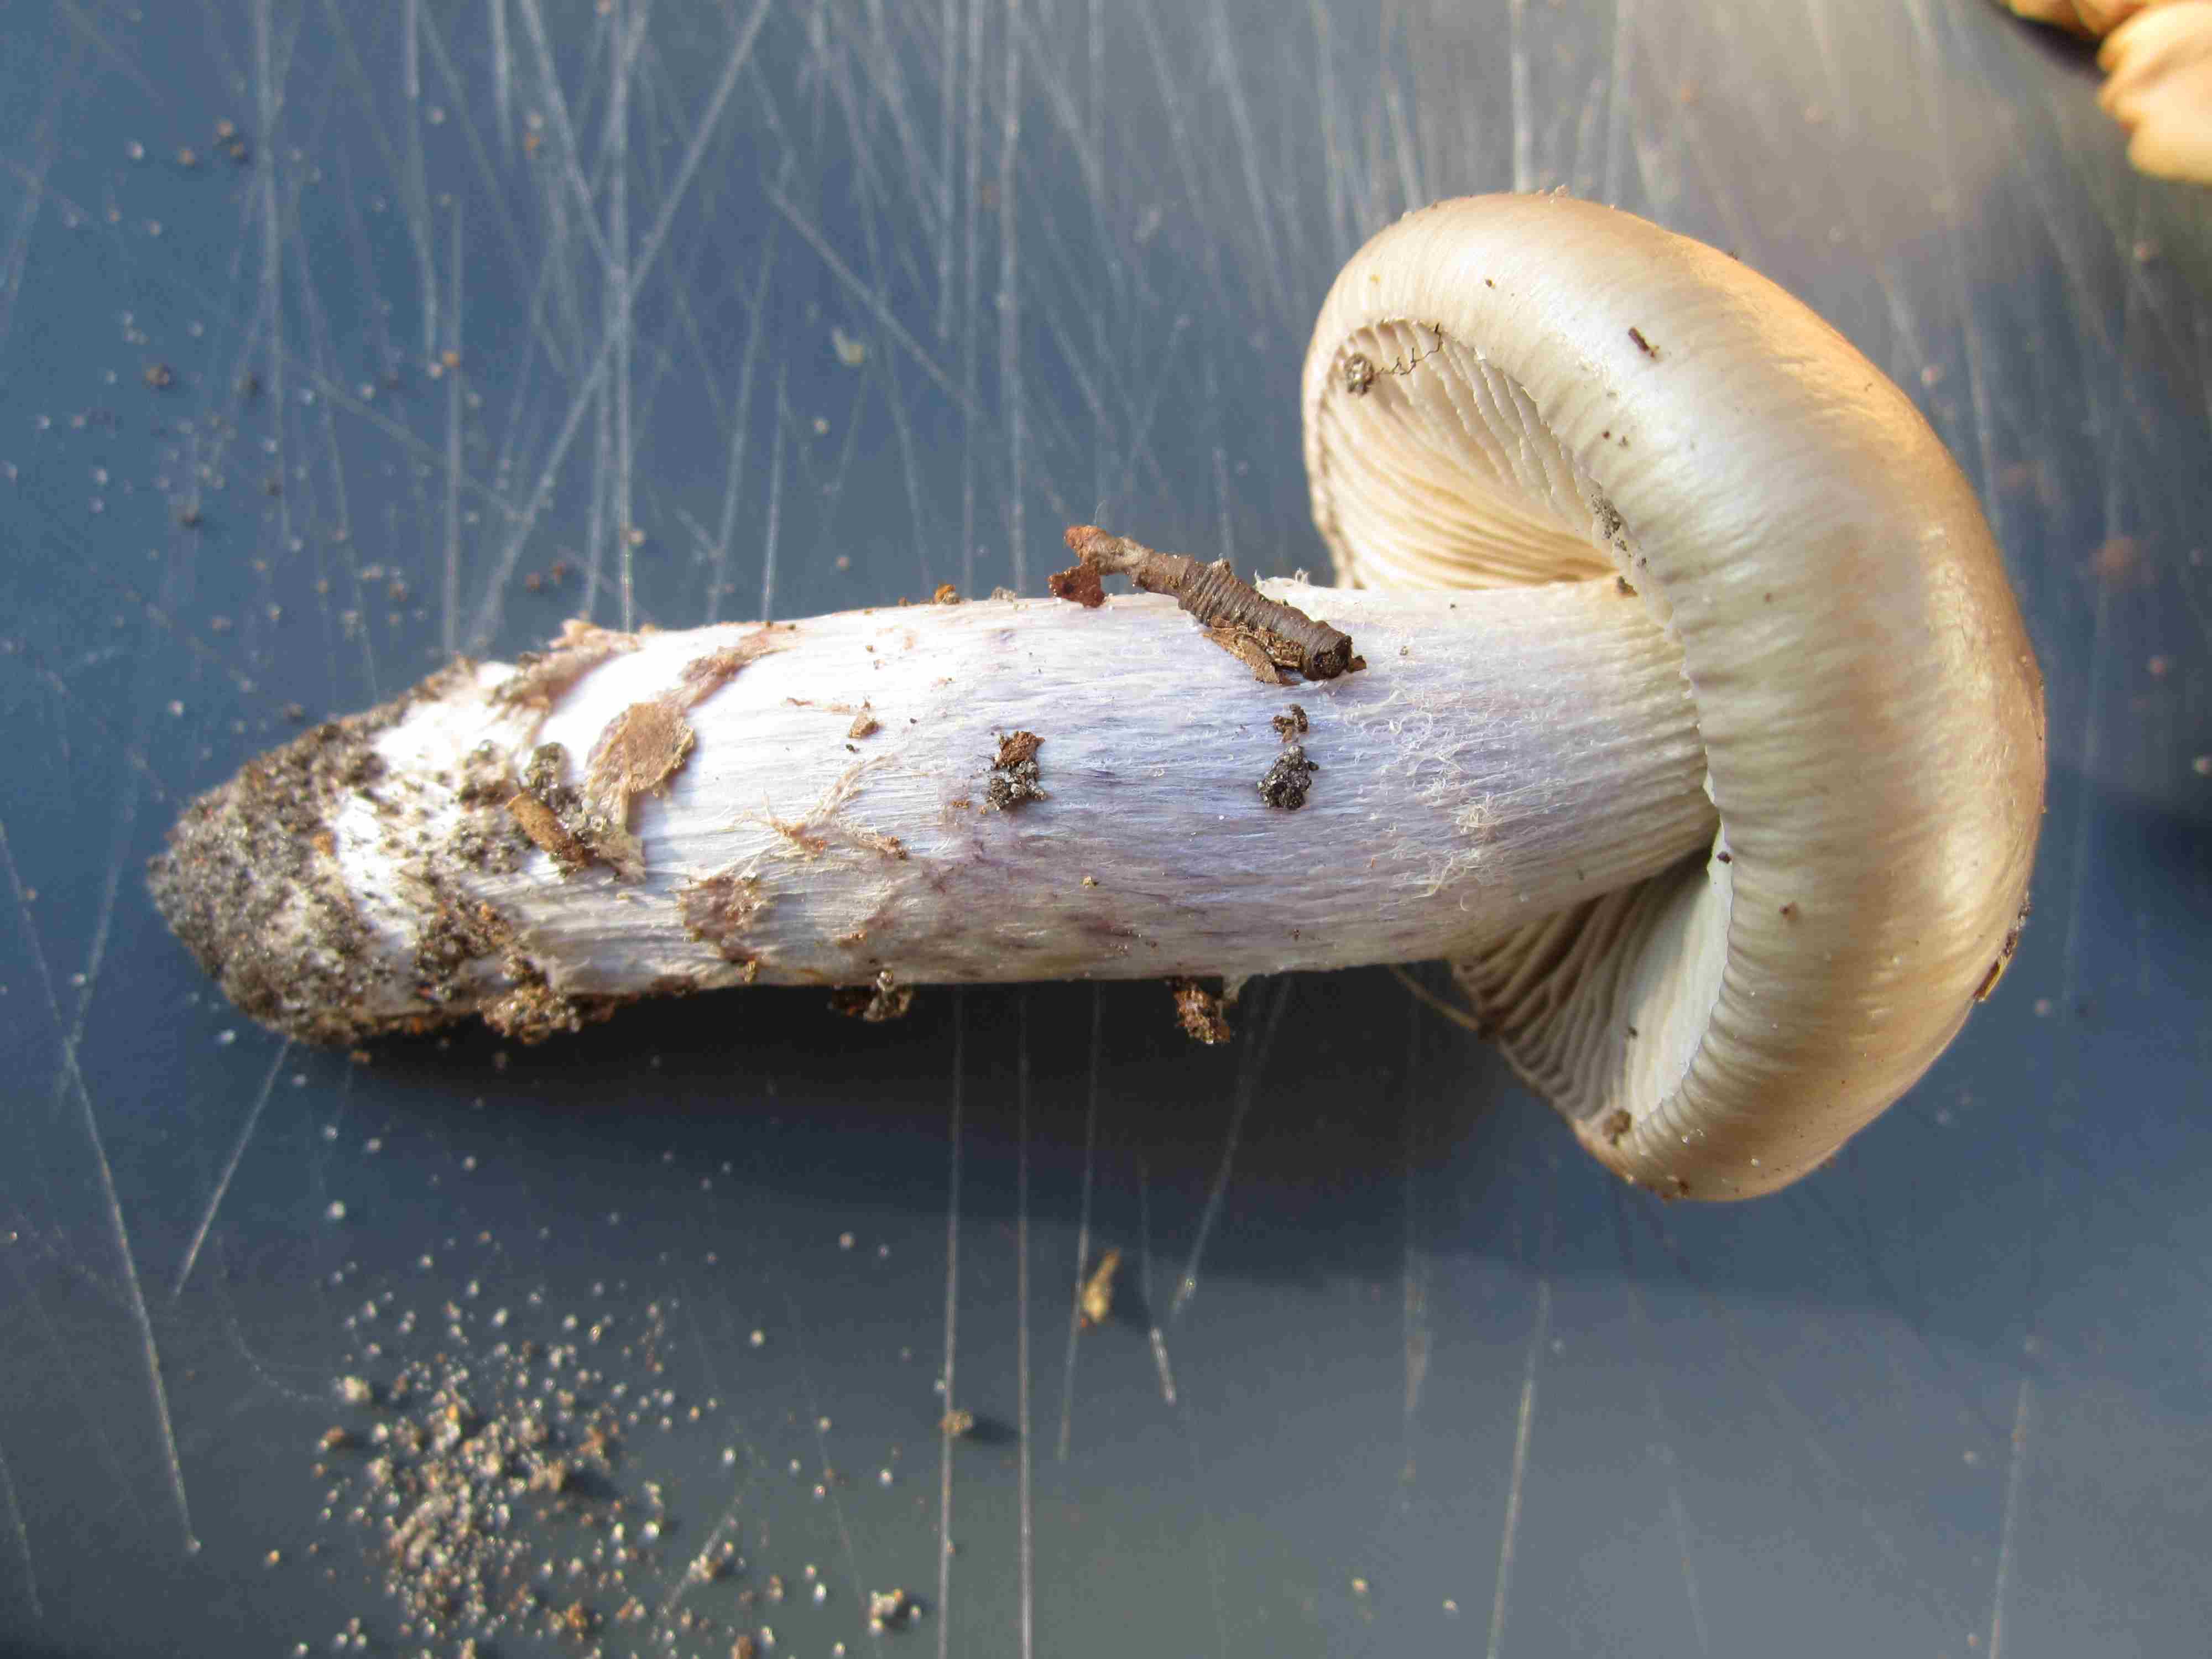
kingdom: Fungi
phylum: Basidiomycota
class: Agaricomycetes
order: Agaricales
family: Cortinariaceae
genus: Cortinarius
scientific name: Cortinarius elatior
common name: høj slørhat
